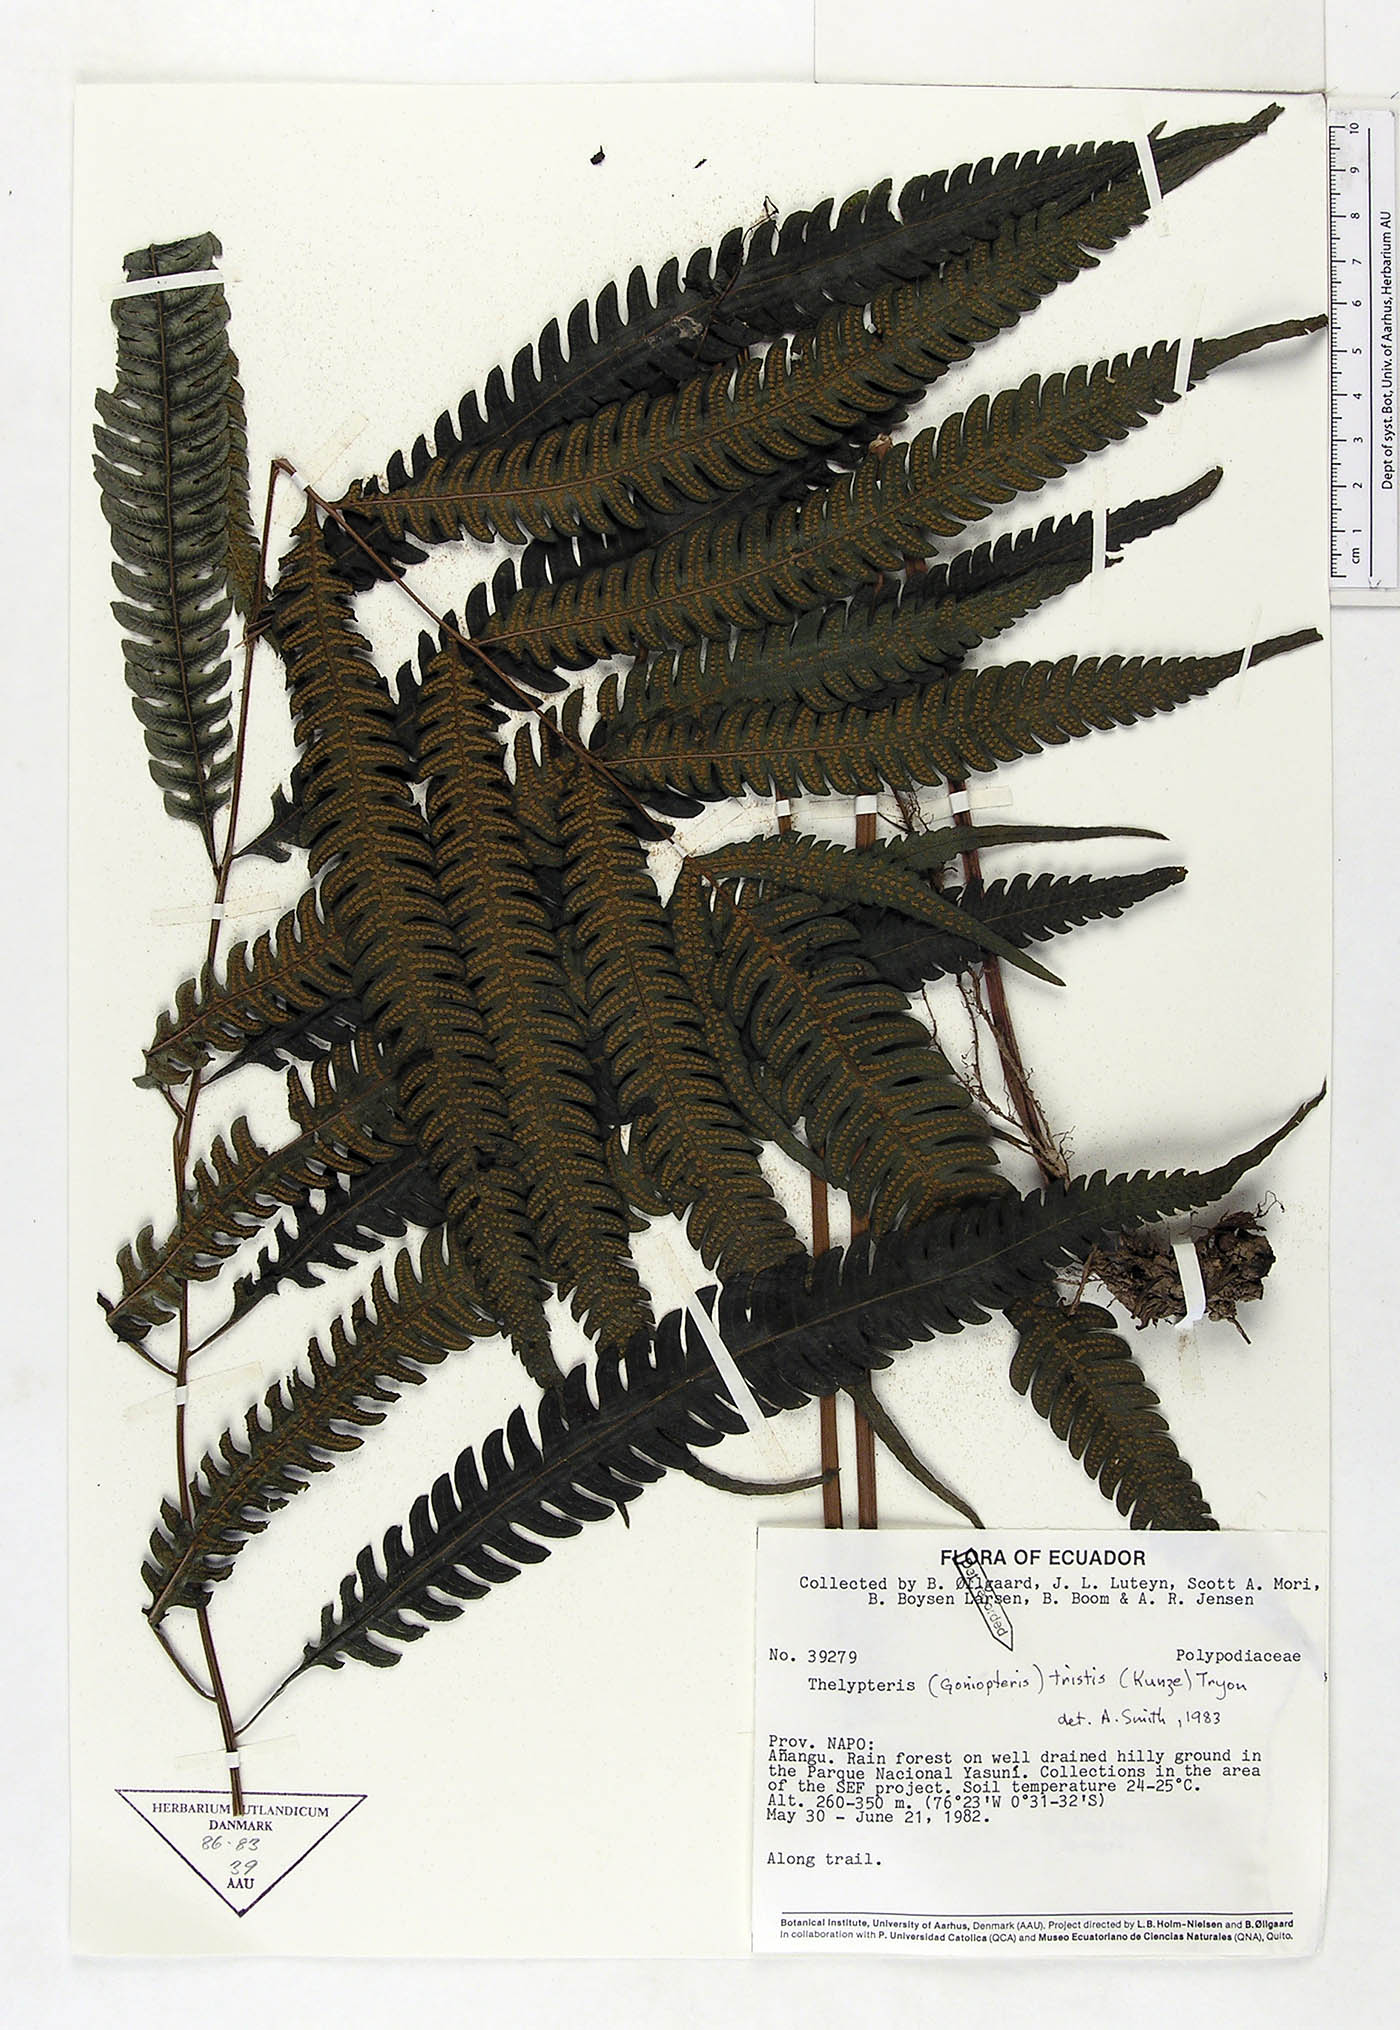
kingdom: Plantae
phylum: Tracheophyta
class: Polypodiopsida
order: Polypodiales
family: Thelypteridaceae
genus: Goniopteris
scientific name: Goniopteris tristis
